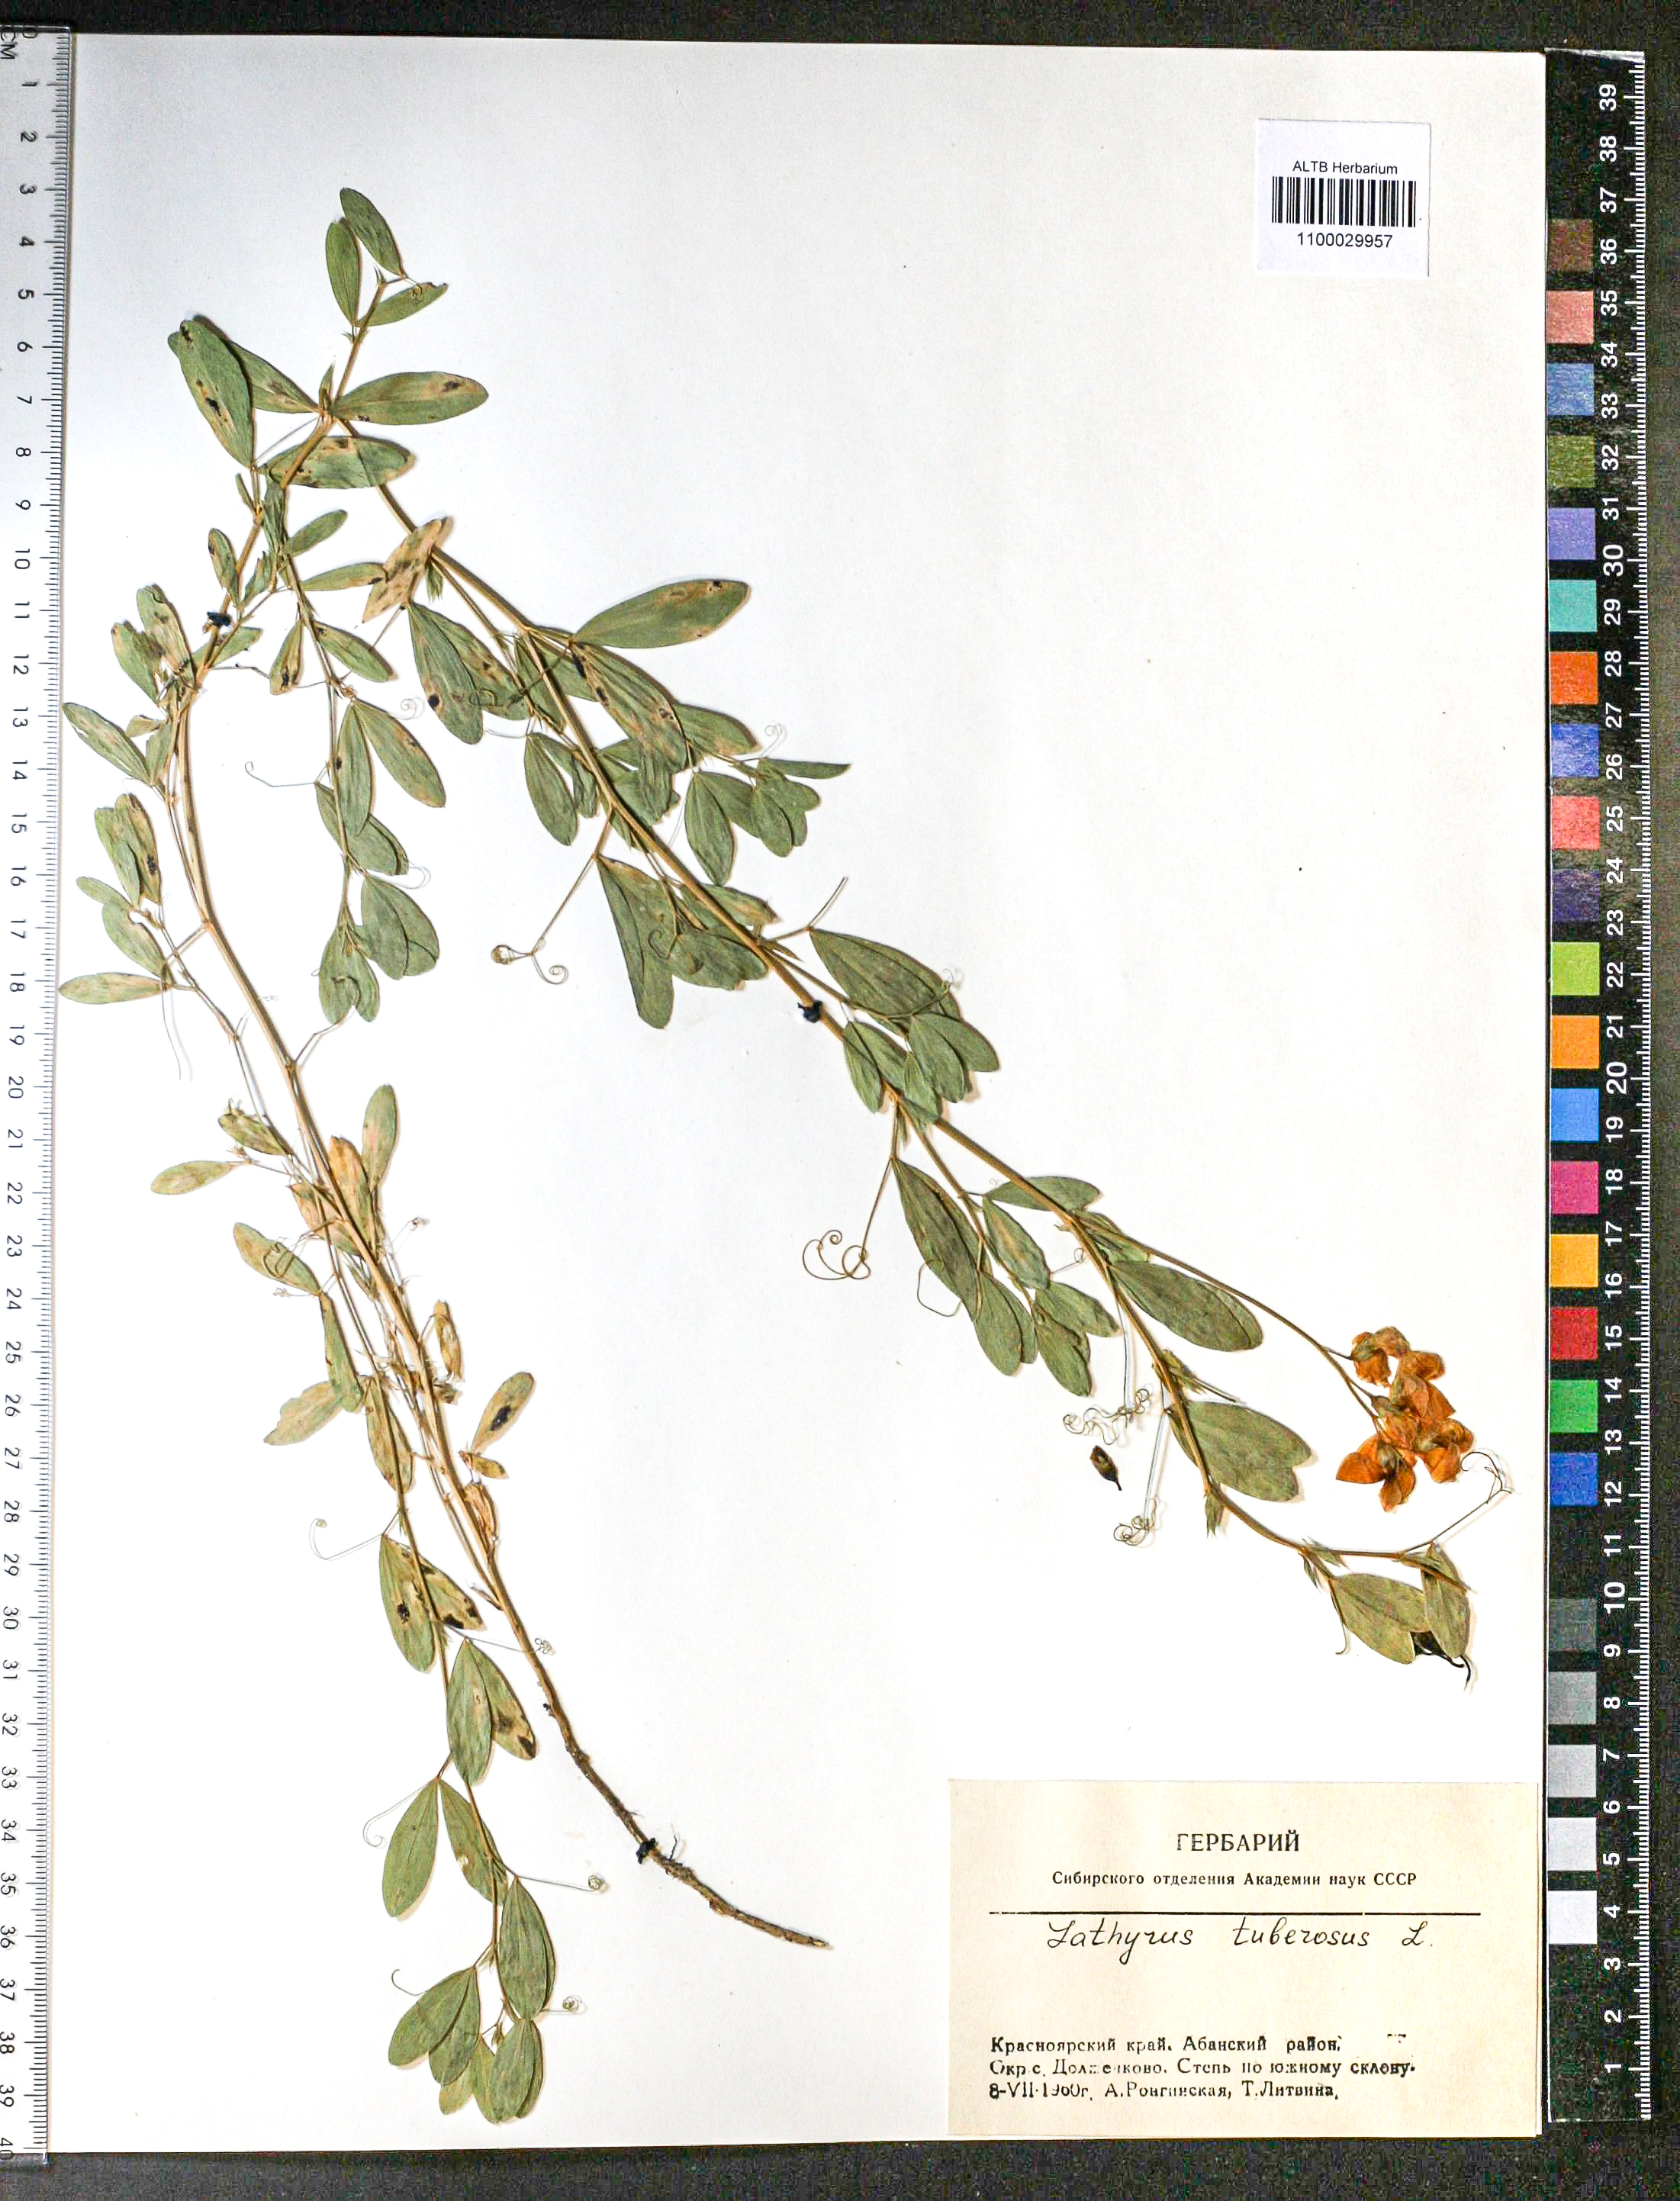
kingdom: Plantae
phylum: Tracheophyta
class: Magnoliopsida
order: Fabales
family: Fabaceae
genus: Lathyrus
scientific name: Lathyrus tuberosus
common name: Tuberous pea
